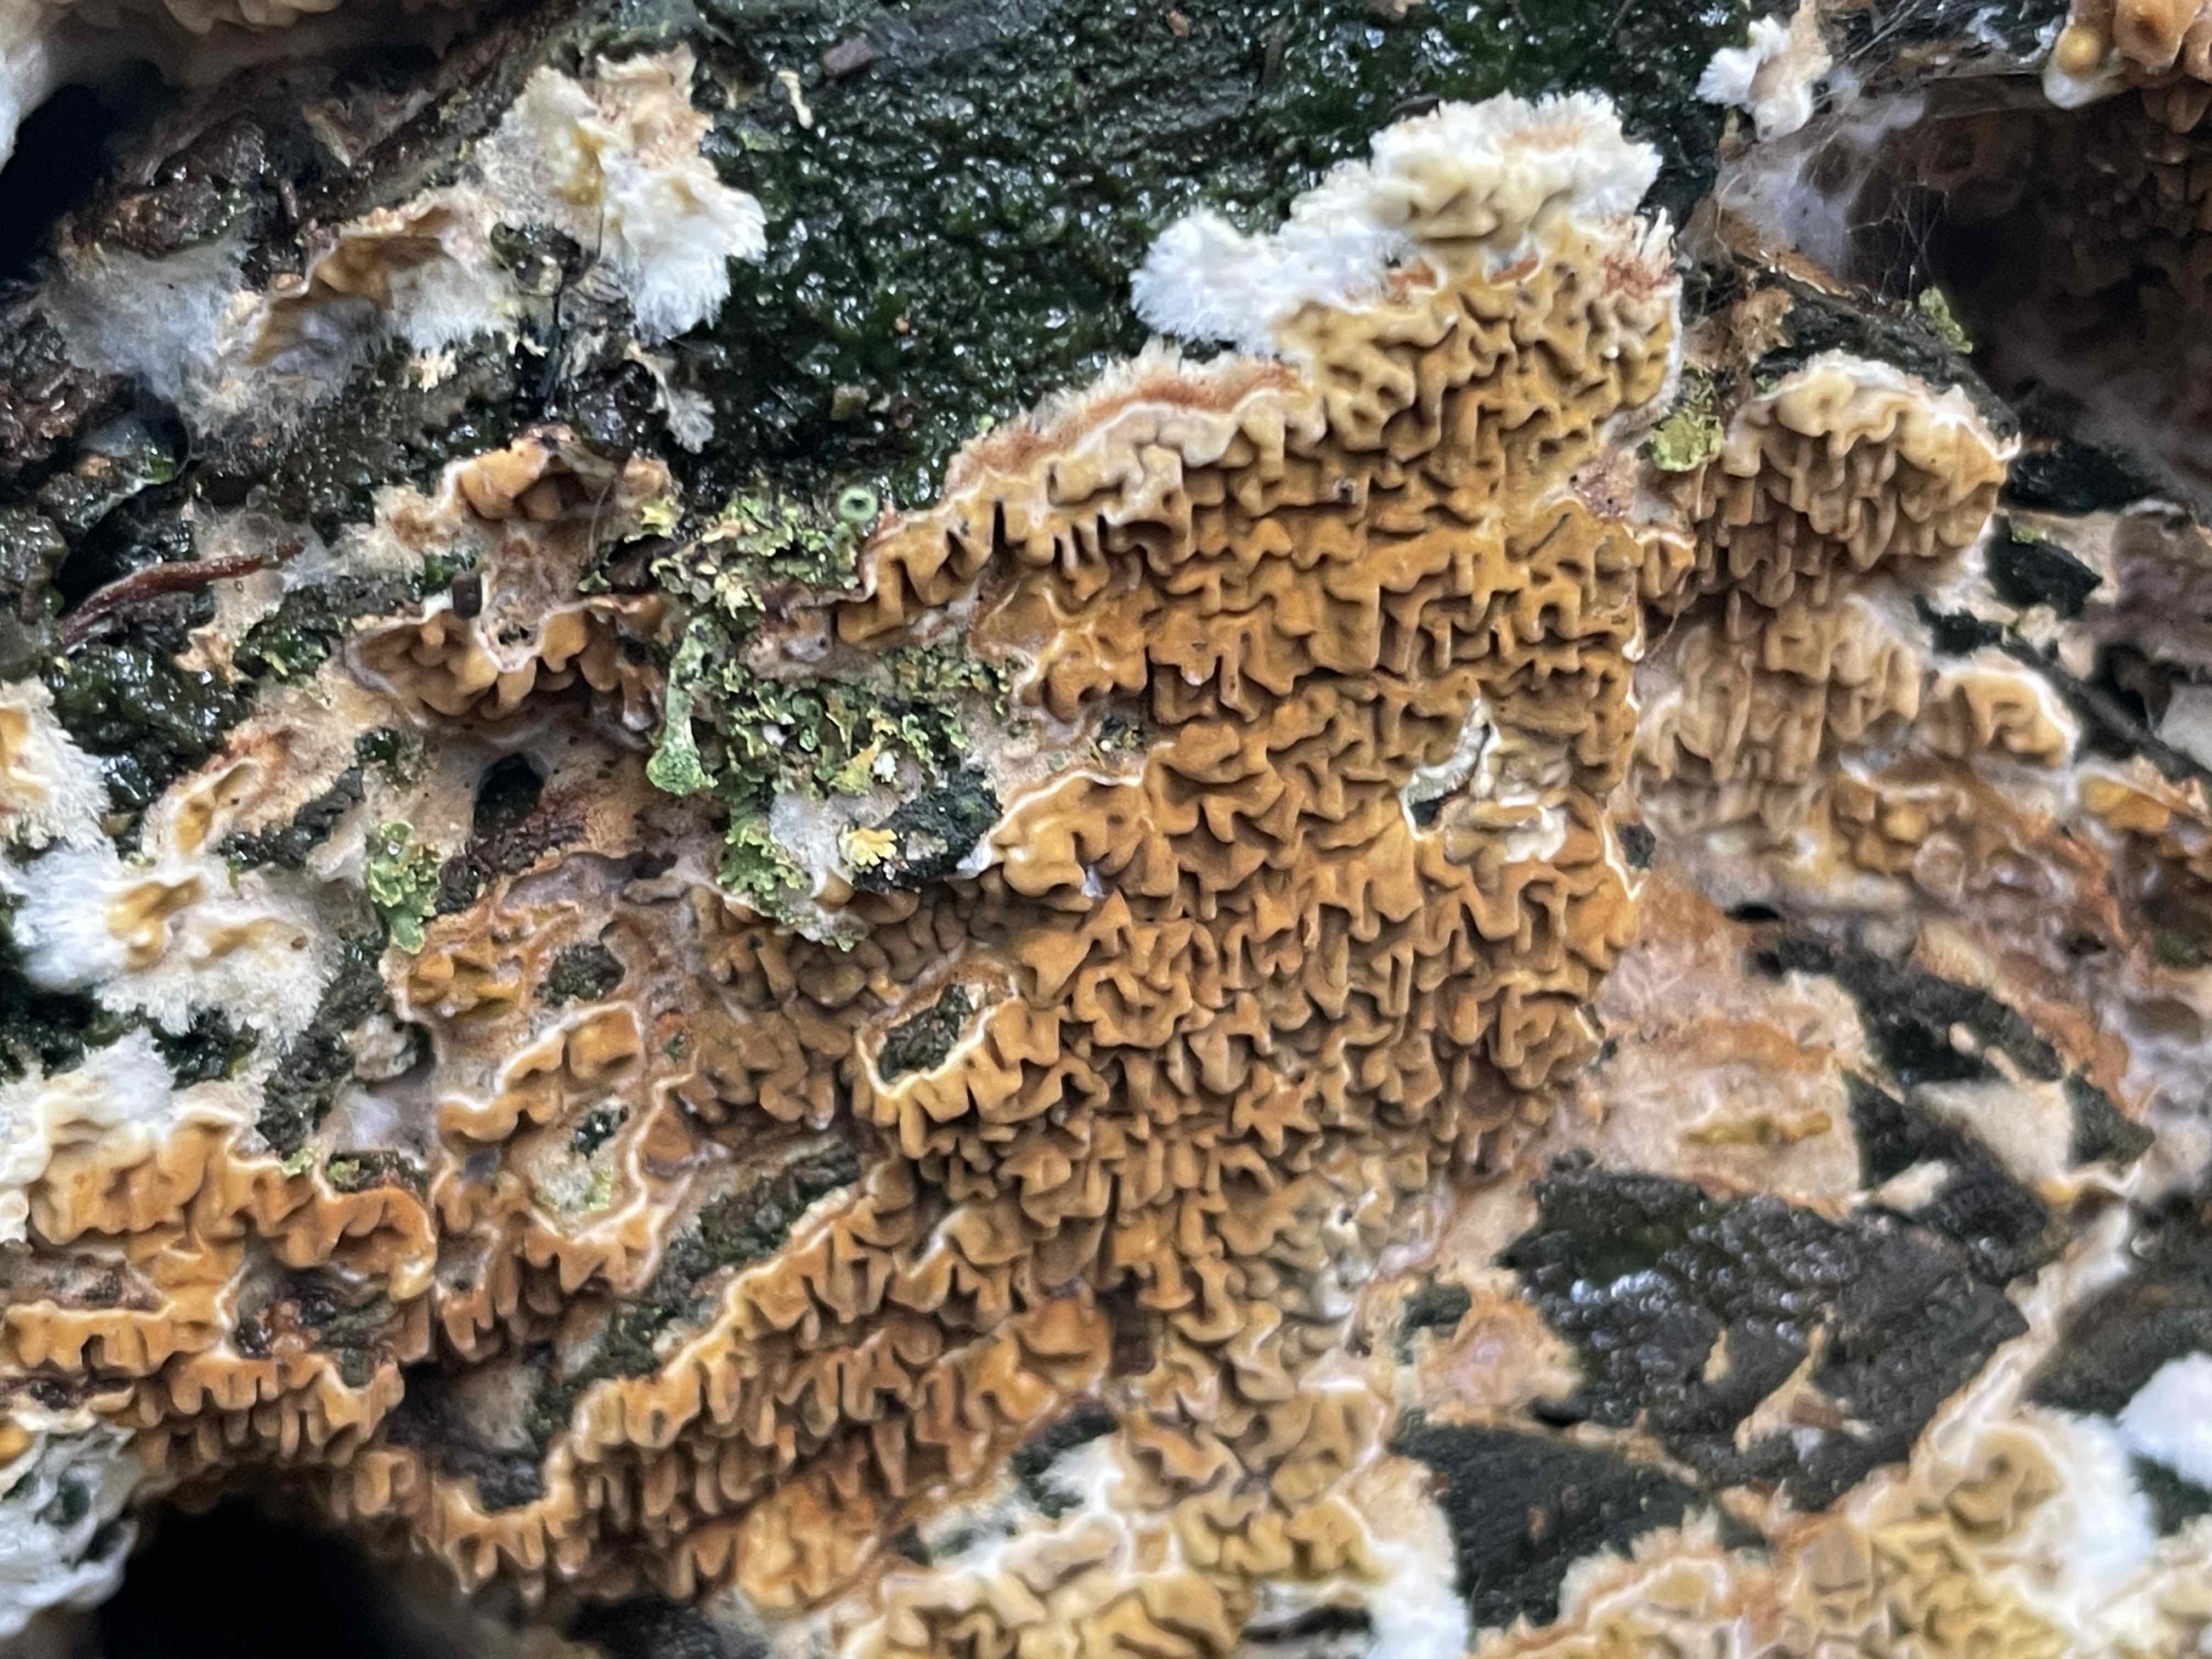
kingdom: Fungi
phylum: Basidiomycota
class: Agaricomycetes
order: Boletales
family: Serpulaceae
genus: Serpula
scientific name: Serpula himantioides
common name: tyndkødet hussvamp
